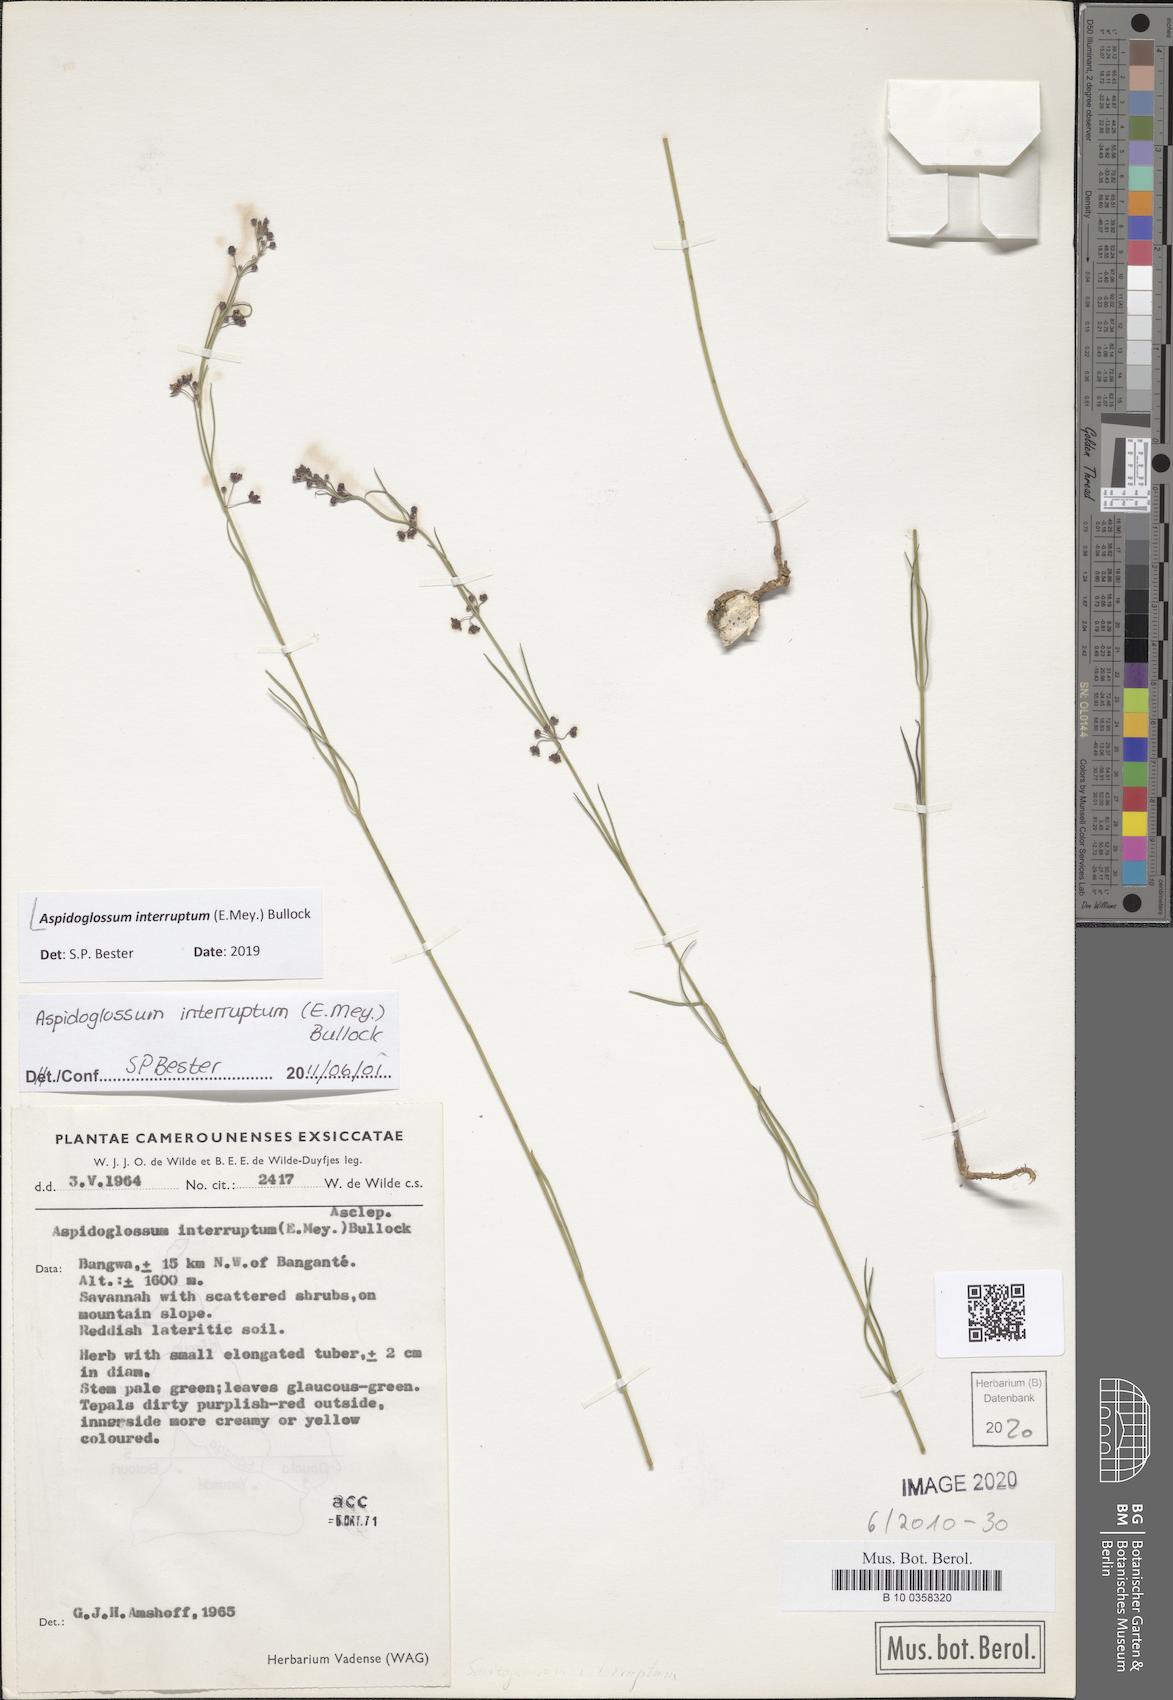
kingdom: Plantae
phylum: Tracheophyta
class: Magnoliopsida
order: Gentianales
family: Apocynaceae
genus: Aspidoglossum
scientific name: Aspidoglossum interruptum
